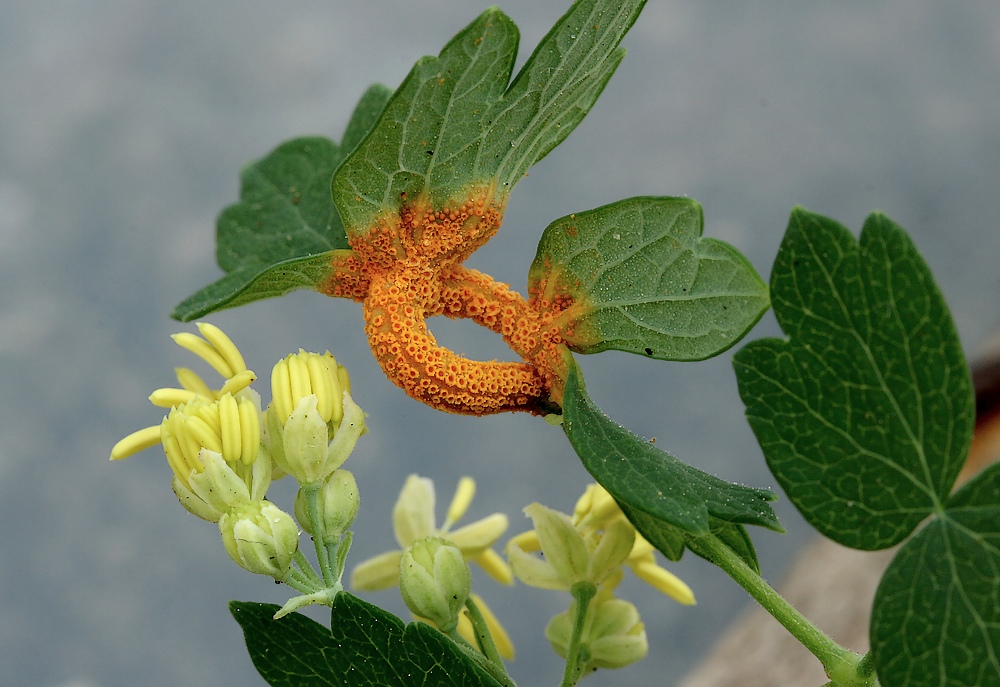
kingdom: Fungi
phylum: Basidiomycota
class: Pucciniomycetes
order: Pucciniales
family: Pucciniaceae
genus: Puccinia
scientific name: Puccinia recondita
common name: Brown rust of wheat
